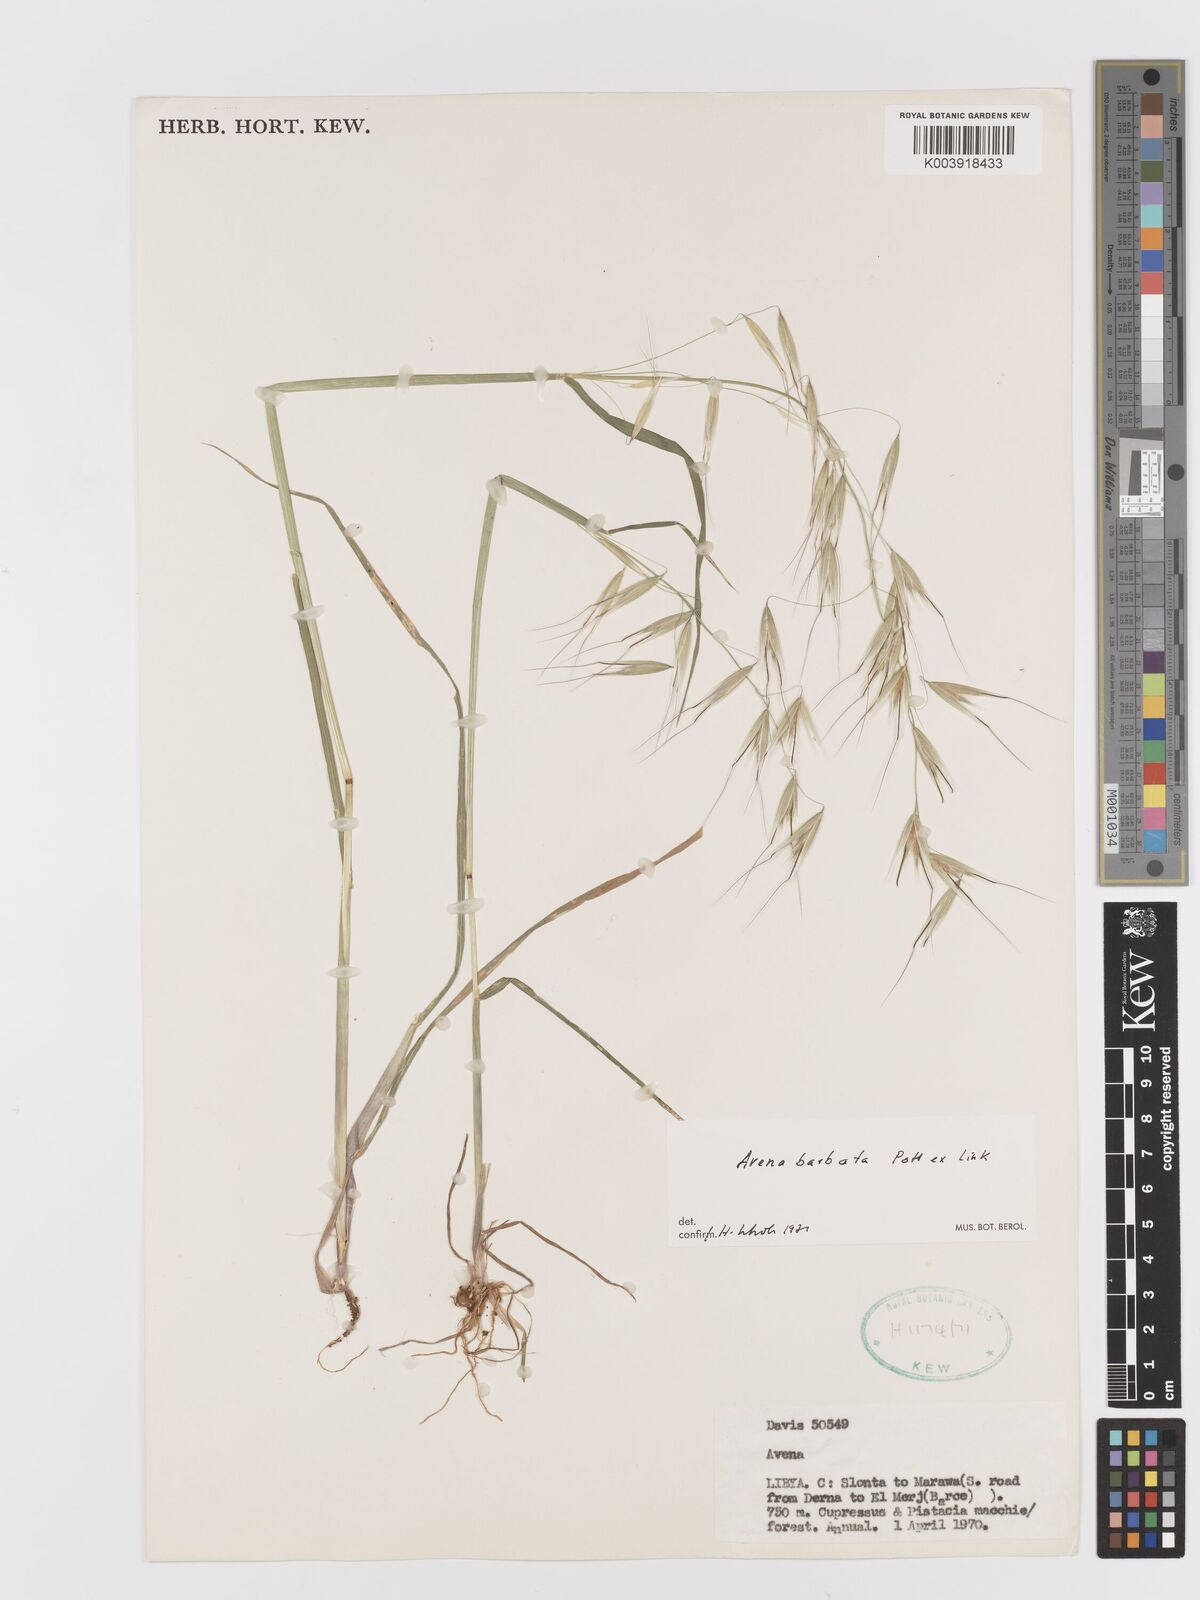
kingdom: Plantae
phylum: Tracheophyta
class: Liliopsida
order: Poales
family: Poaceae
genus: Avena
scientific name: Avena
